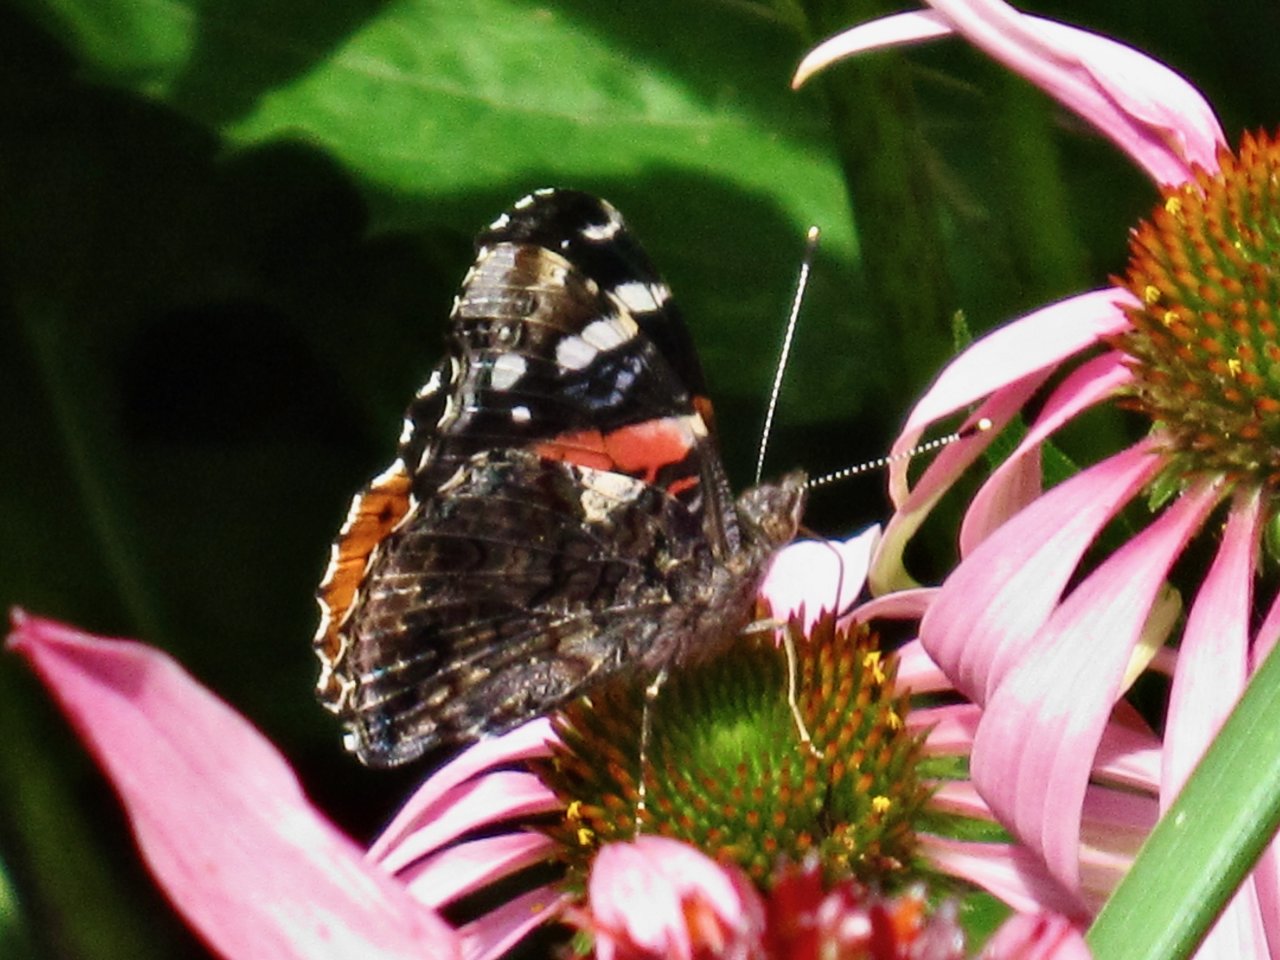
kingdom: Animalia
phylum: Arthropoda
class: Insecta
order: Lepidoptera
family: Nymphalidae
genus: Vanessa
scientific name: Vanessa atalanta
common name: Red Admiral
